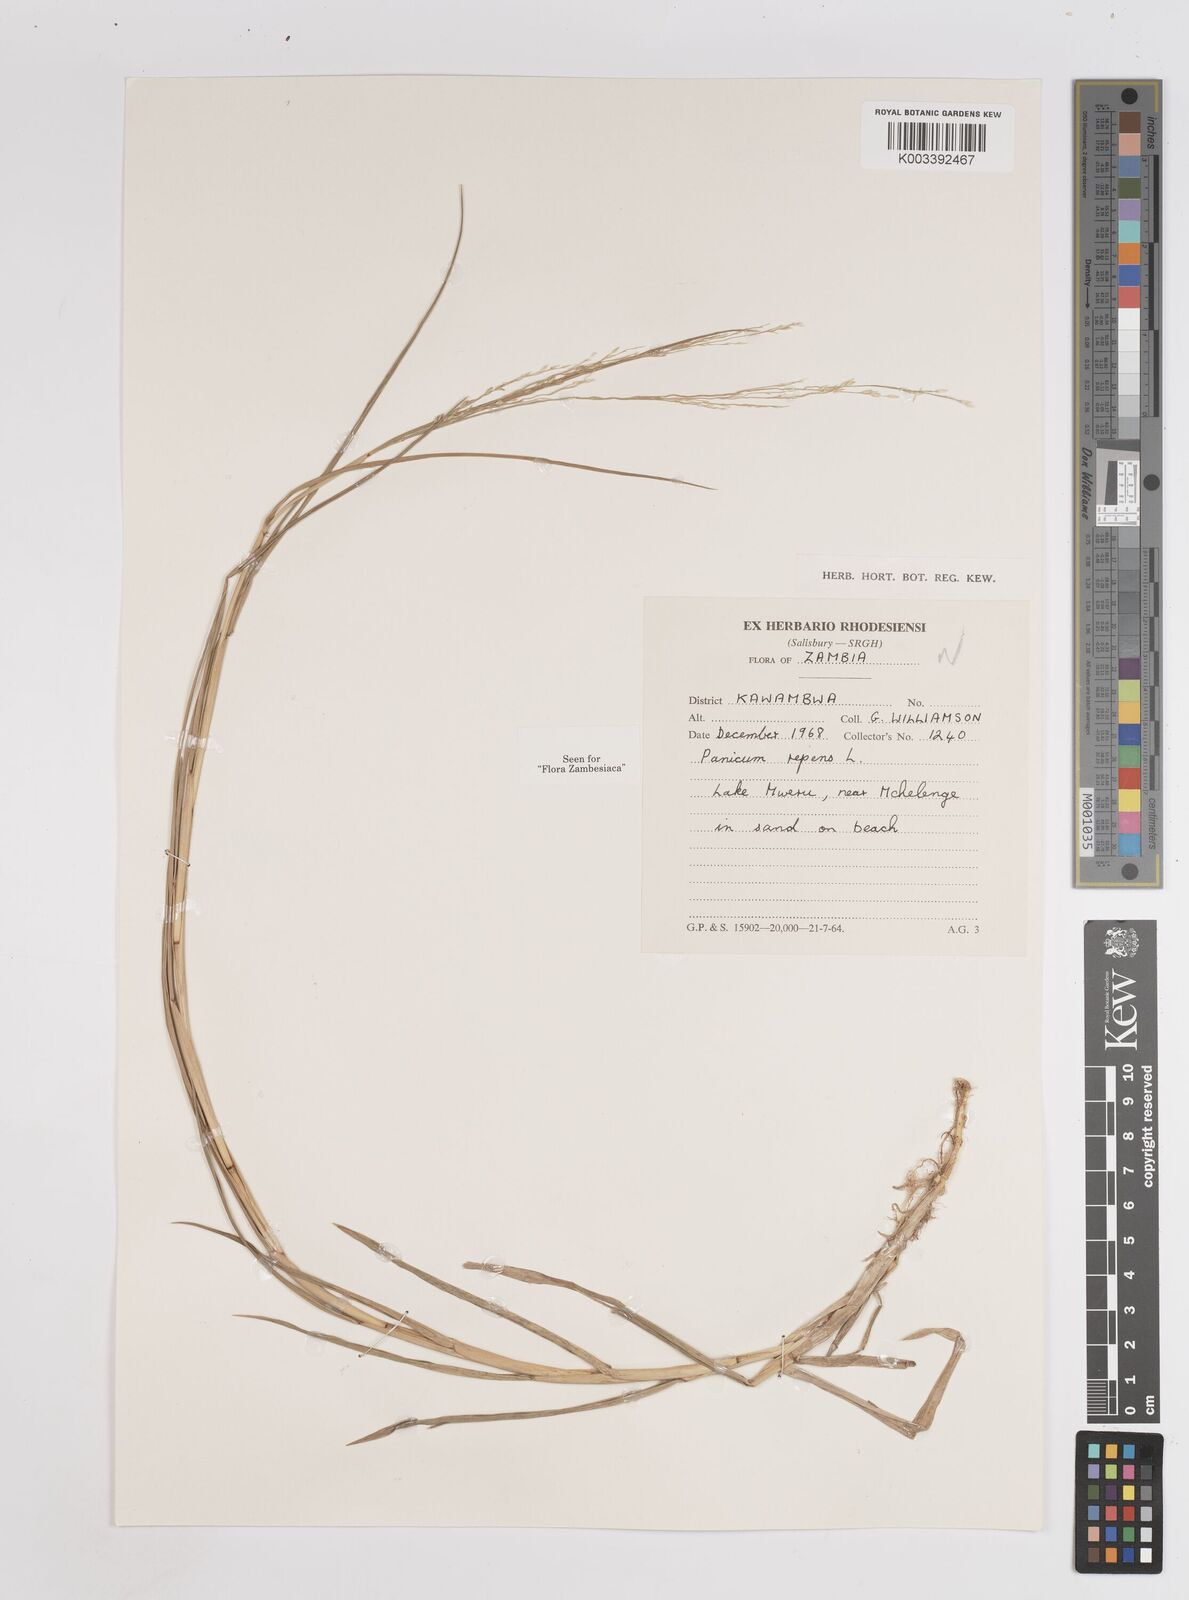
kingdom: Plantae
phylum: Tracheophyta
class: Liliopsida
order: Poales
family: Poaceae
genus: Panicum
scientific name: Panicum repens
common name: Torpedo grass
